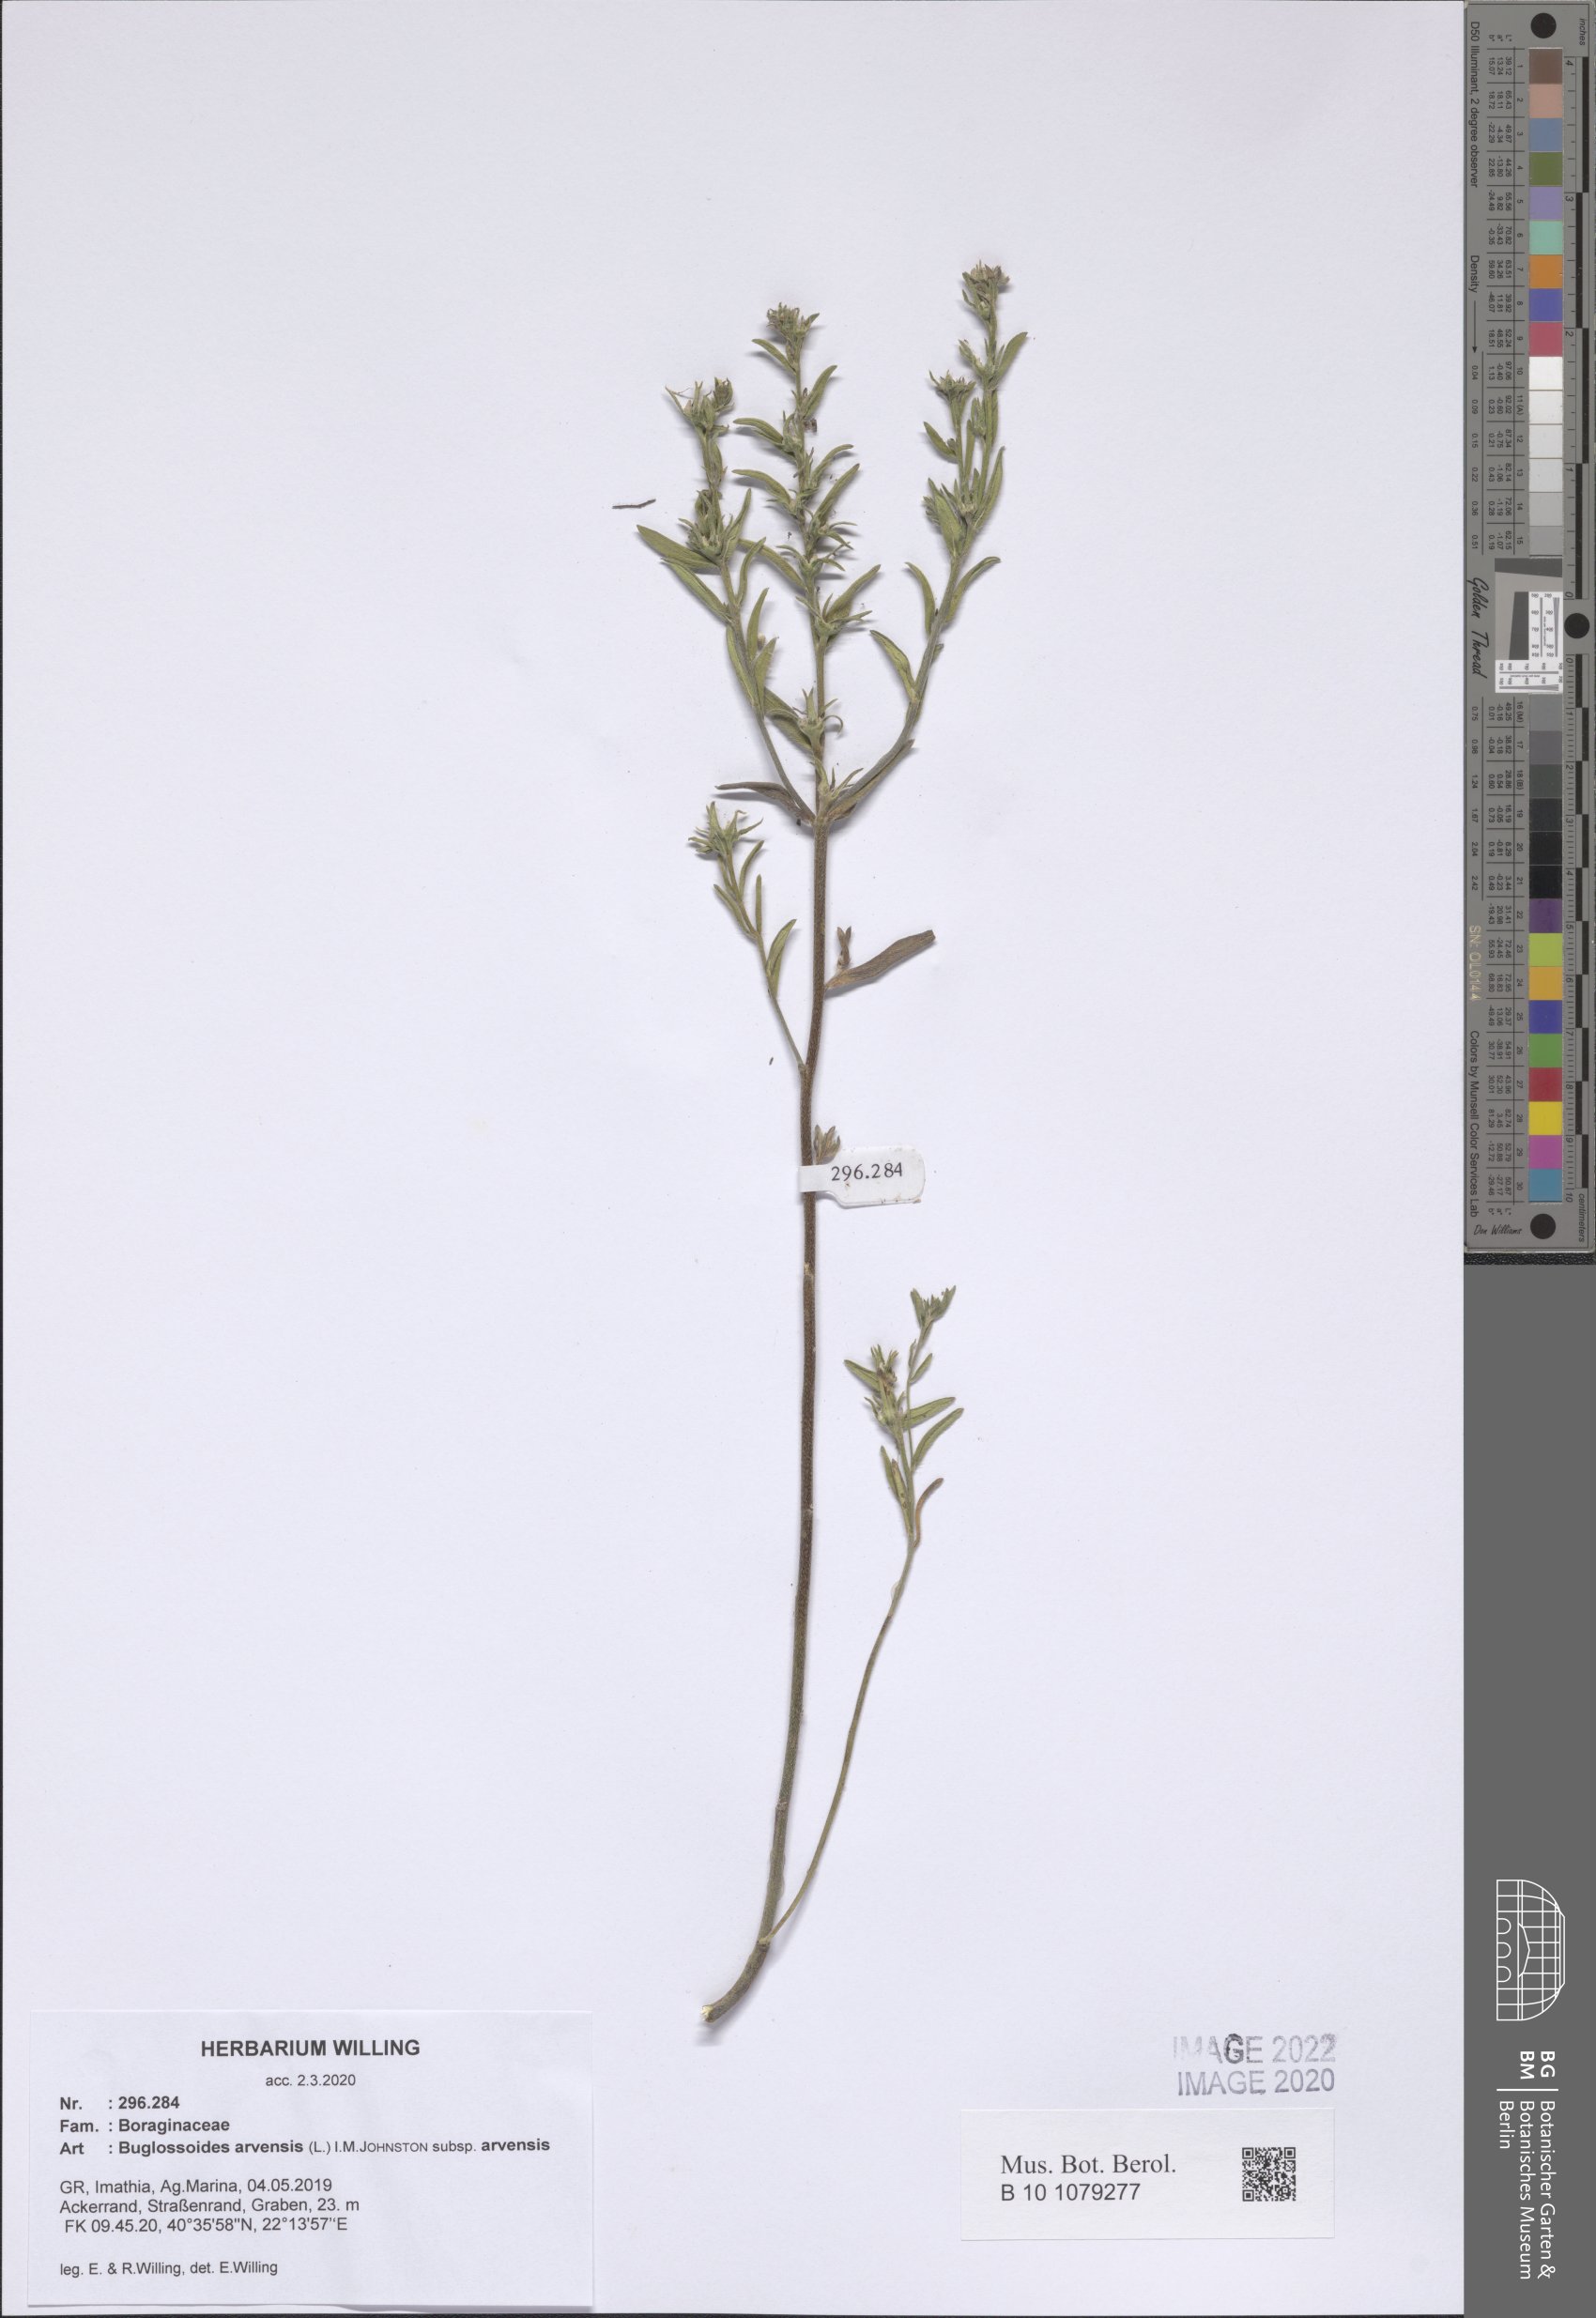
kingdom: Plantae
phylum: Tracheophyta
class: Magnoliopsida
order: Boraginales
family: Boraginaceae
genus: Buglossoides
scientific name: Buglossoides arvensis
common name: Corn gromwell
